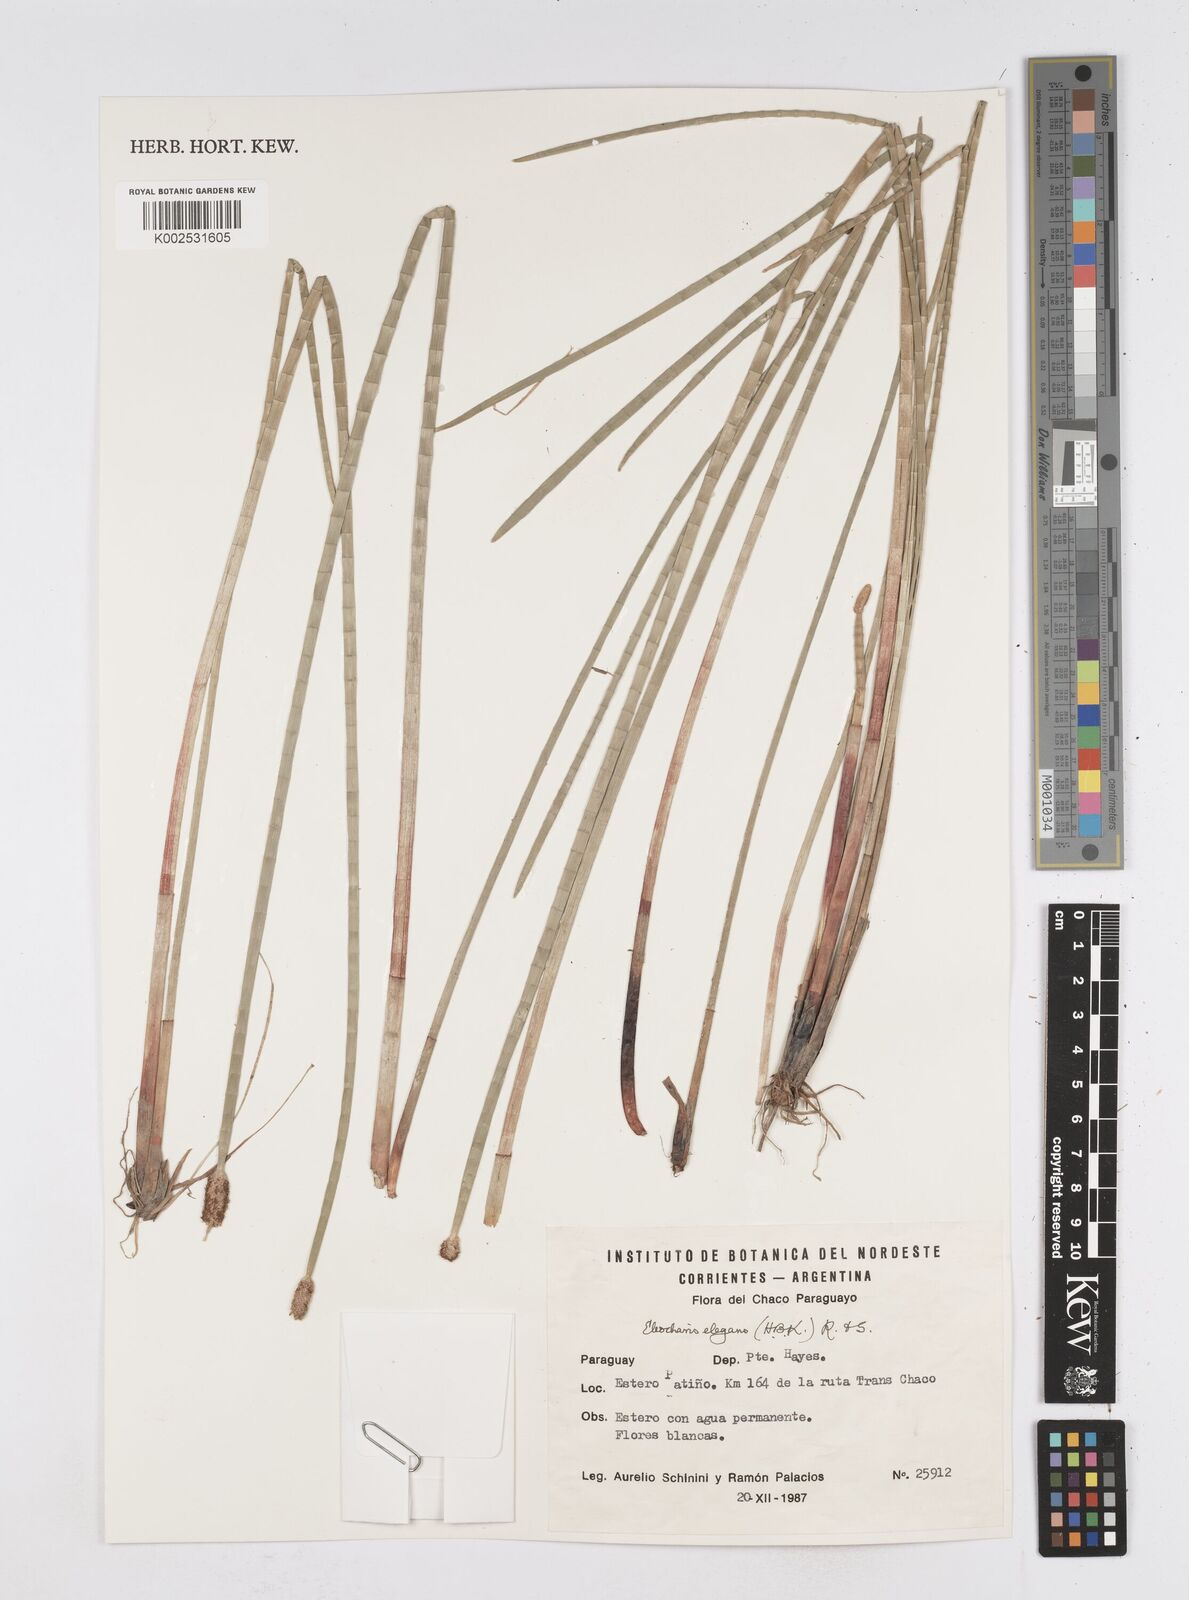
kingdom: Plantae
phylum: Tracheophyta
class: Liliopsida
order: Poales
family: Cyperaceae
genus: Eleocharis
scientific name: Eleocharis elegans
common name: Elegant spike-rush
